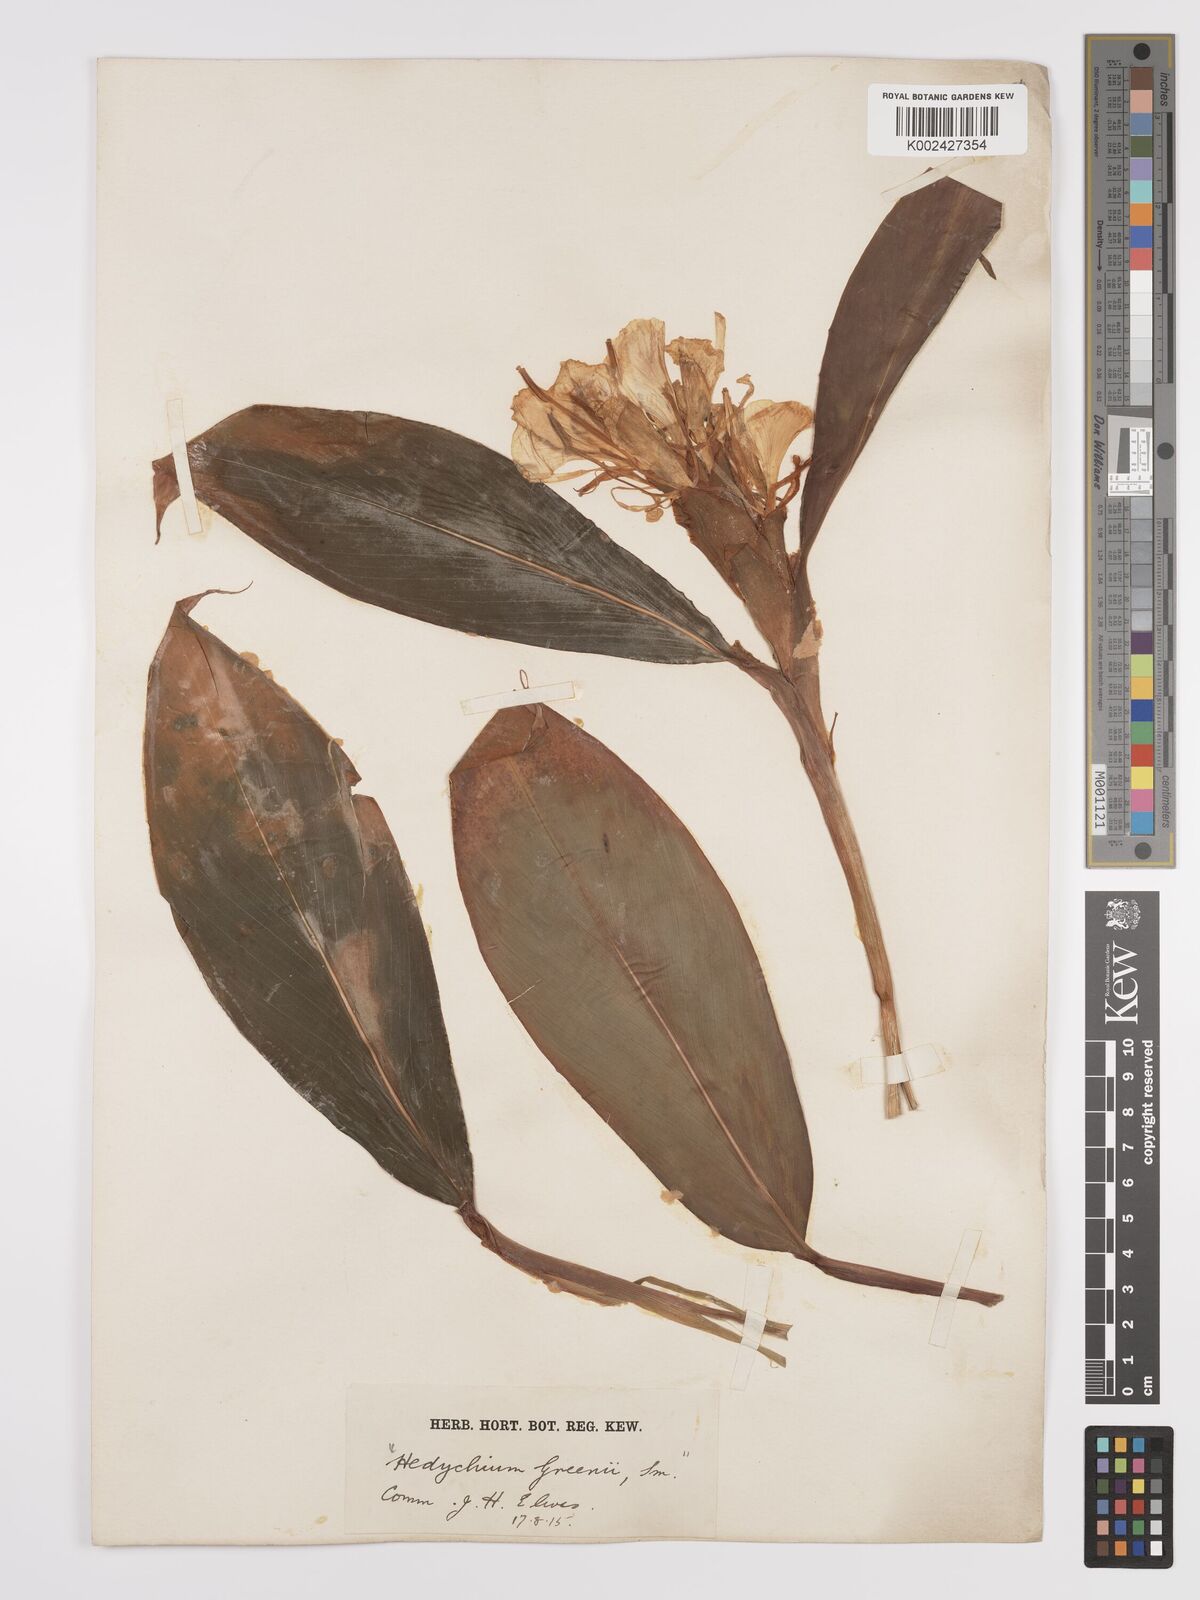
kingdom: Plantae
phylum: Tracheophyta
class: Liliopsida
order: Zingiberales
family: Zingiberaceae
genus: Hedychium
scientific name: Hedychium greenii
